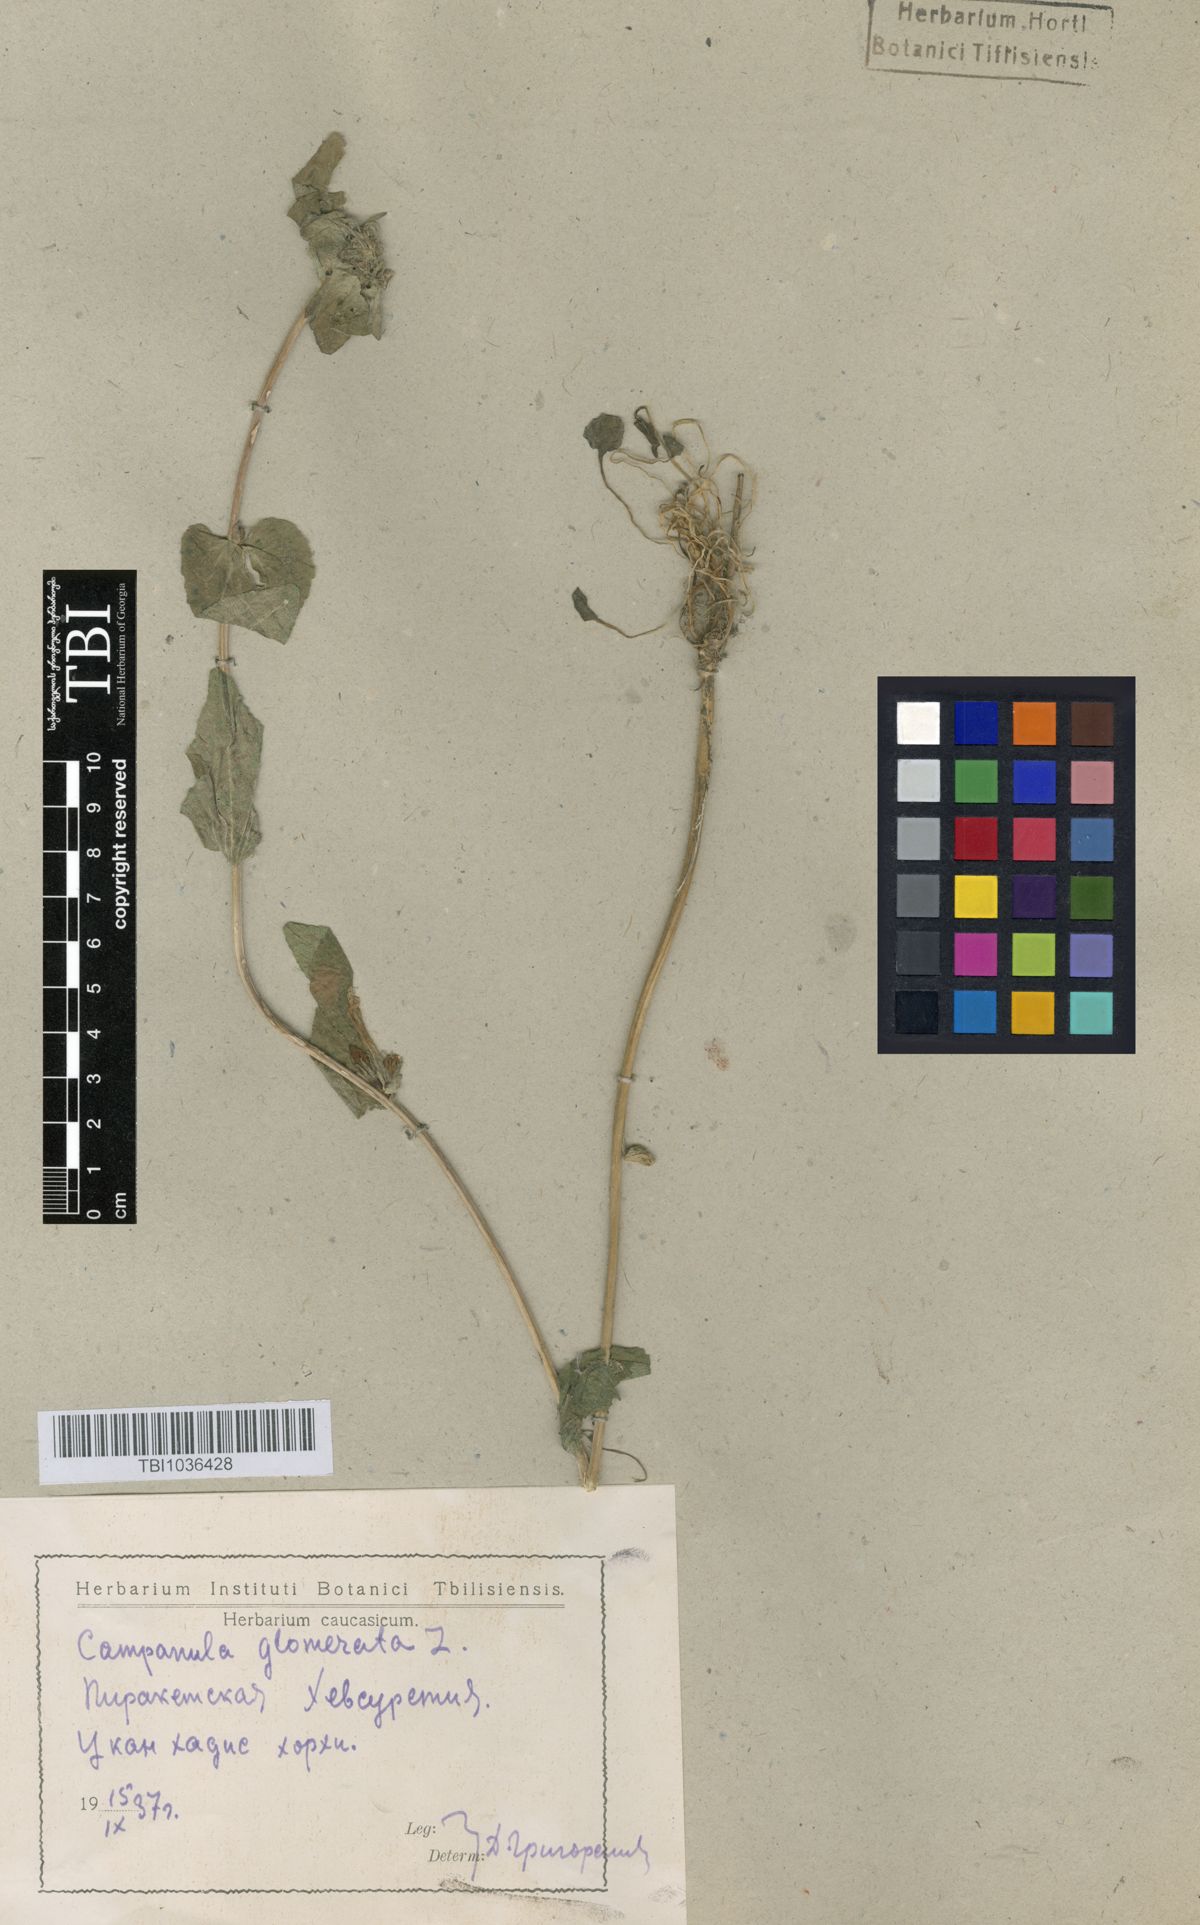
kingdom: Plantae
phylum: Tracheophyta
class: Magnoliopsida
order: Asterales
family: Campanulaceae
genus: Campanula
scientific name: Campanula glomerata
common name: Clustered bellflower
